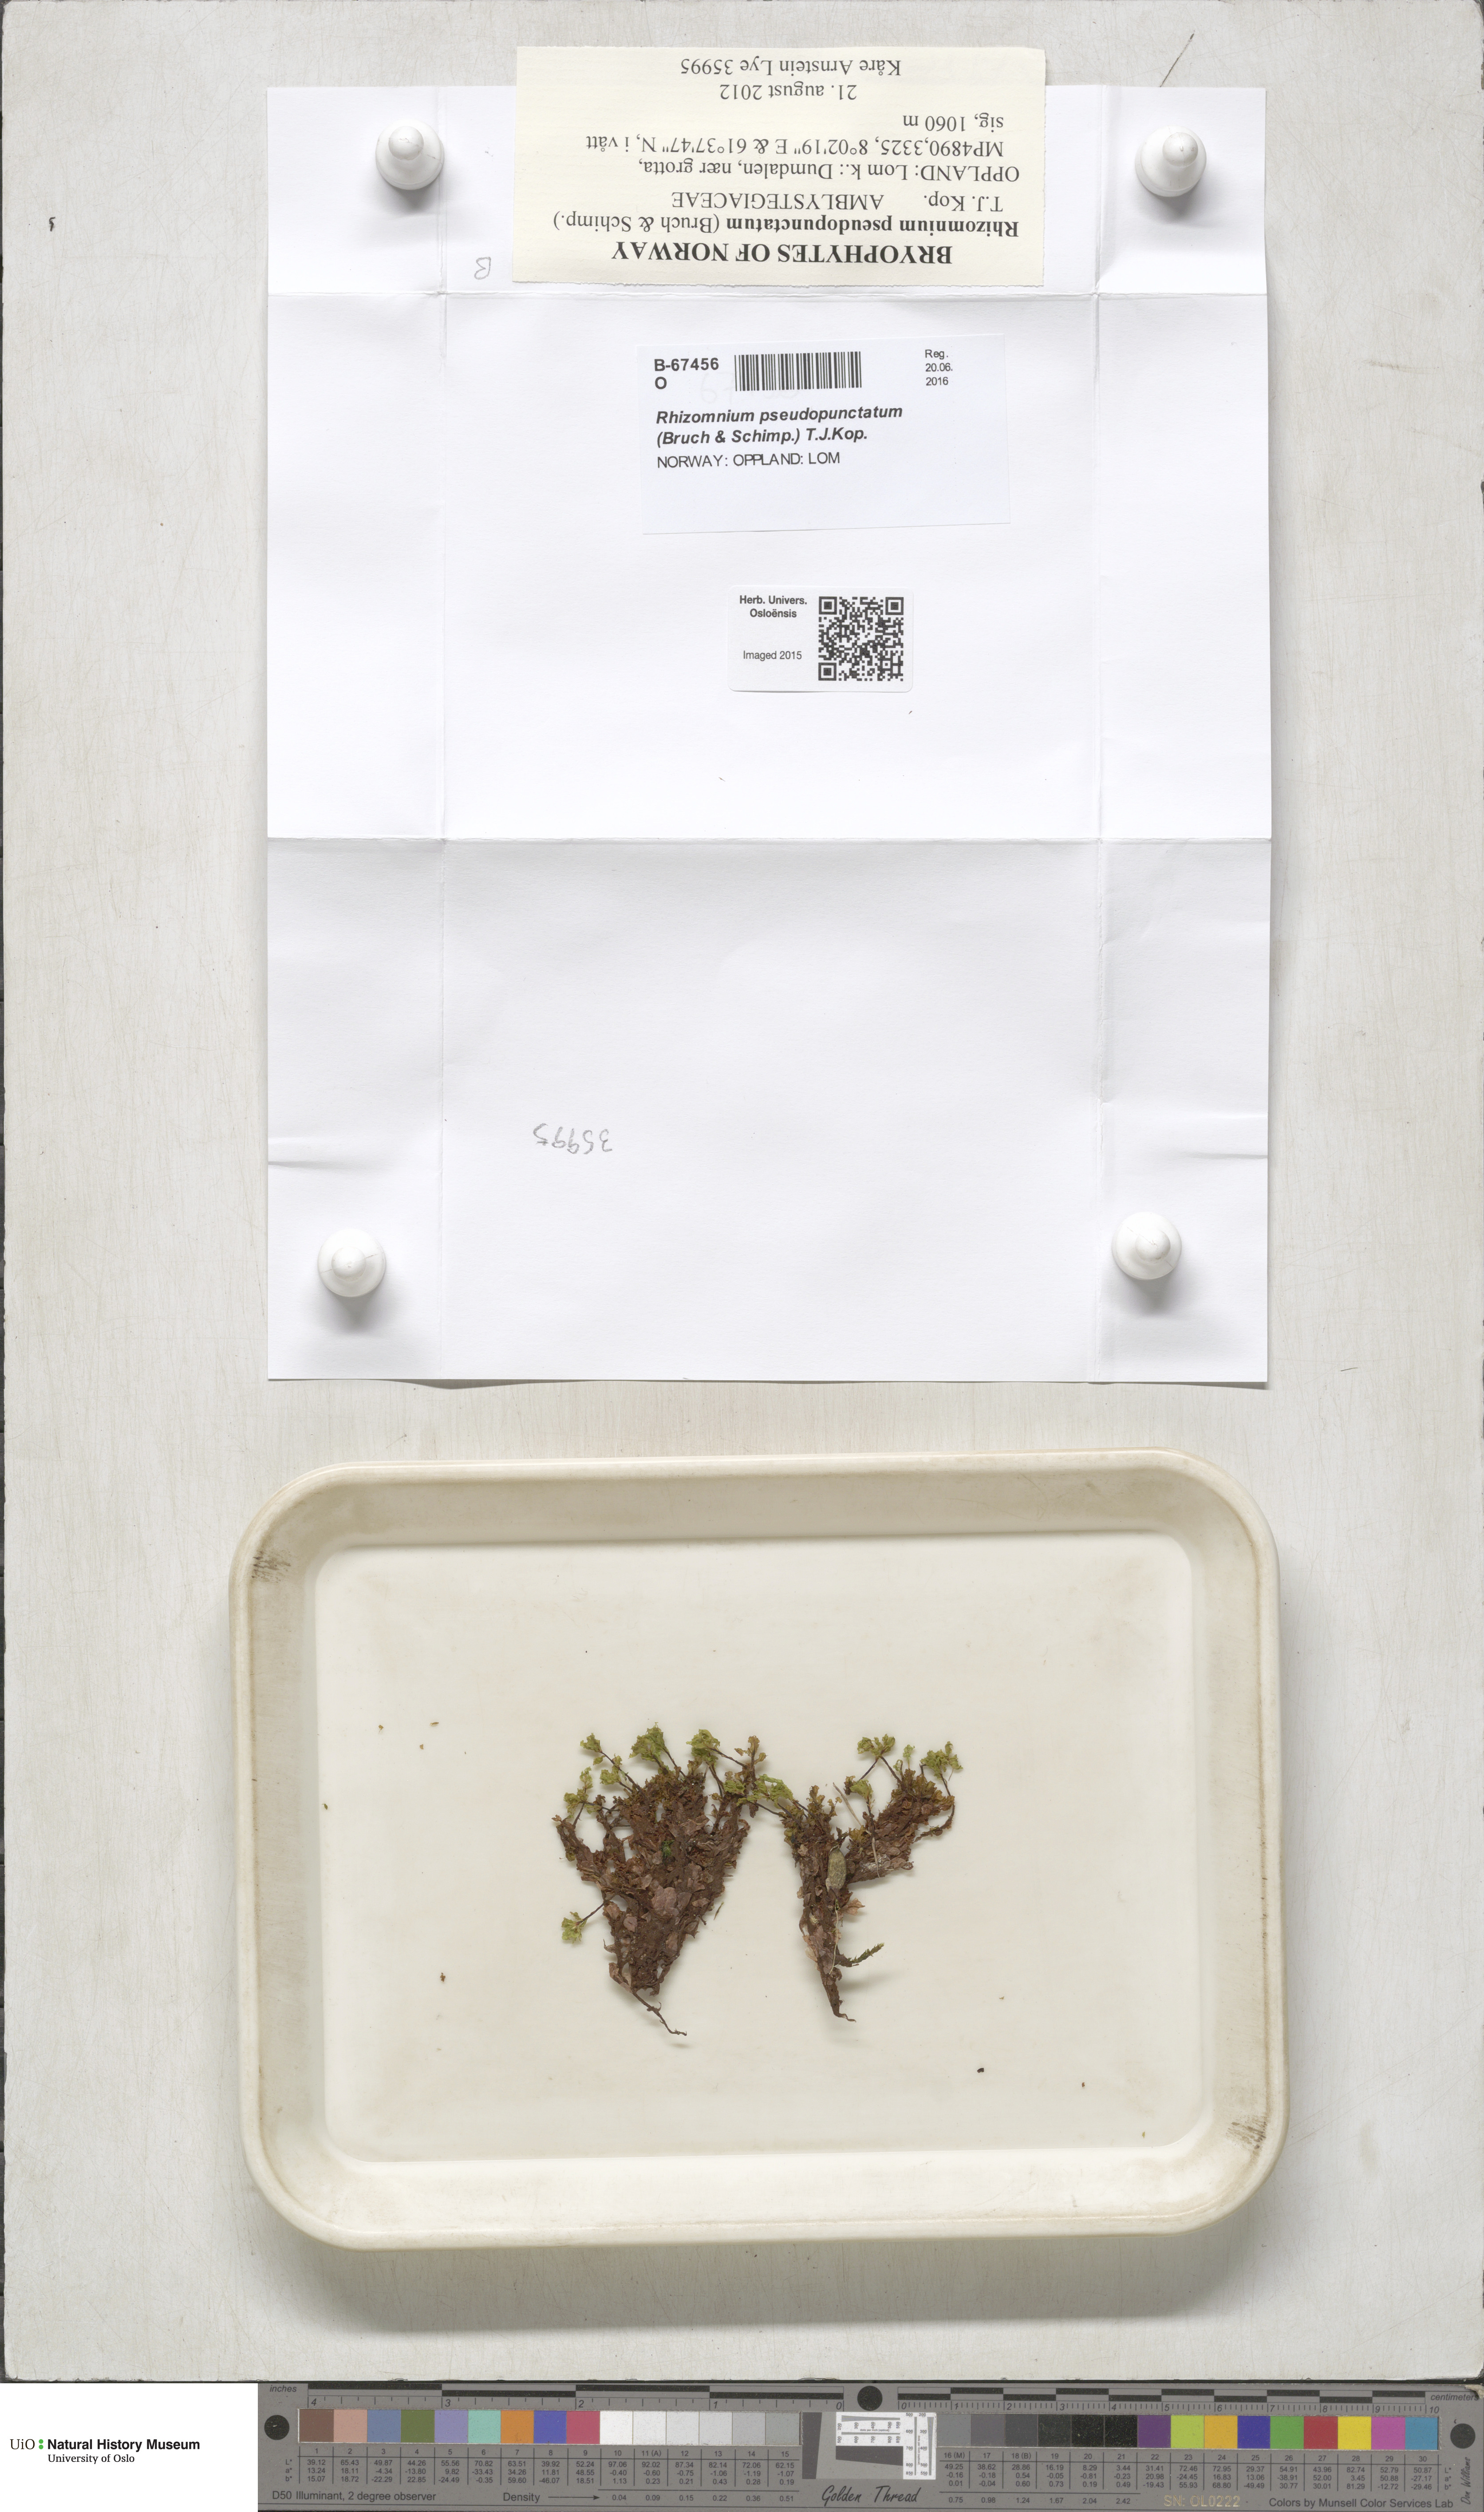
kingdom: Plantae
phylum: Bryophyta
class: Bryopsida
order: Bryales
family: Mniaceae
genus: Rhizomnium
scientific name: Rhizomnium pseudopunctatum
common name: Felted leafy moss
